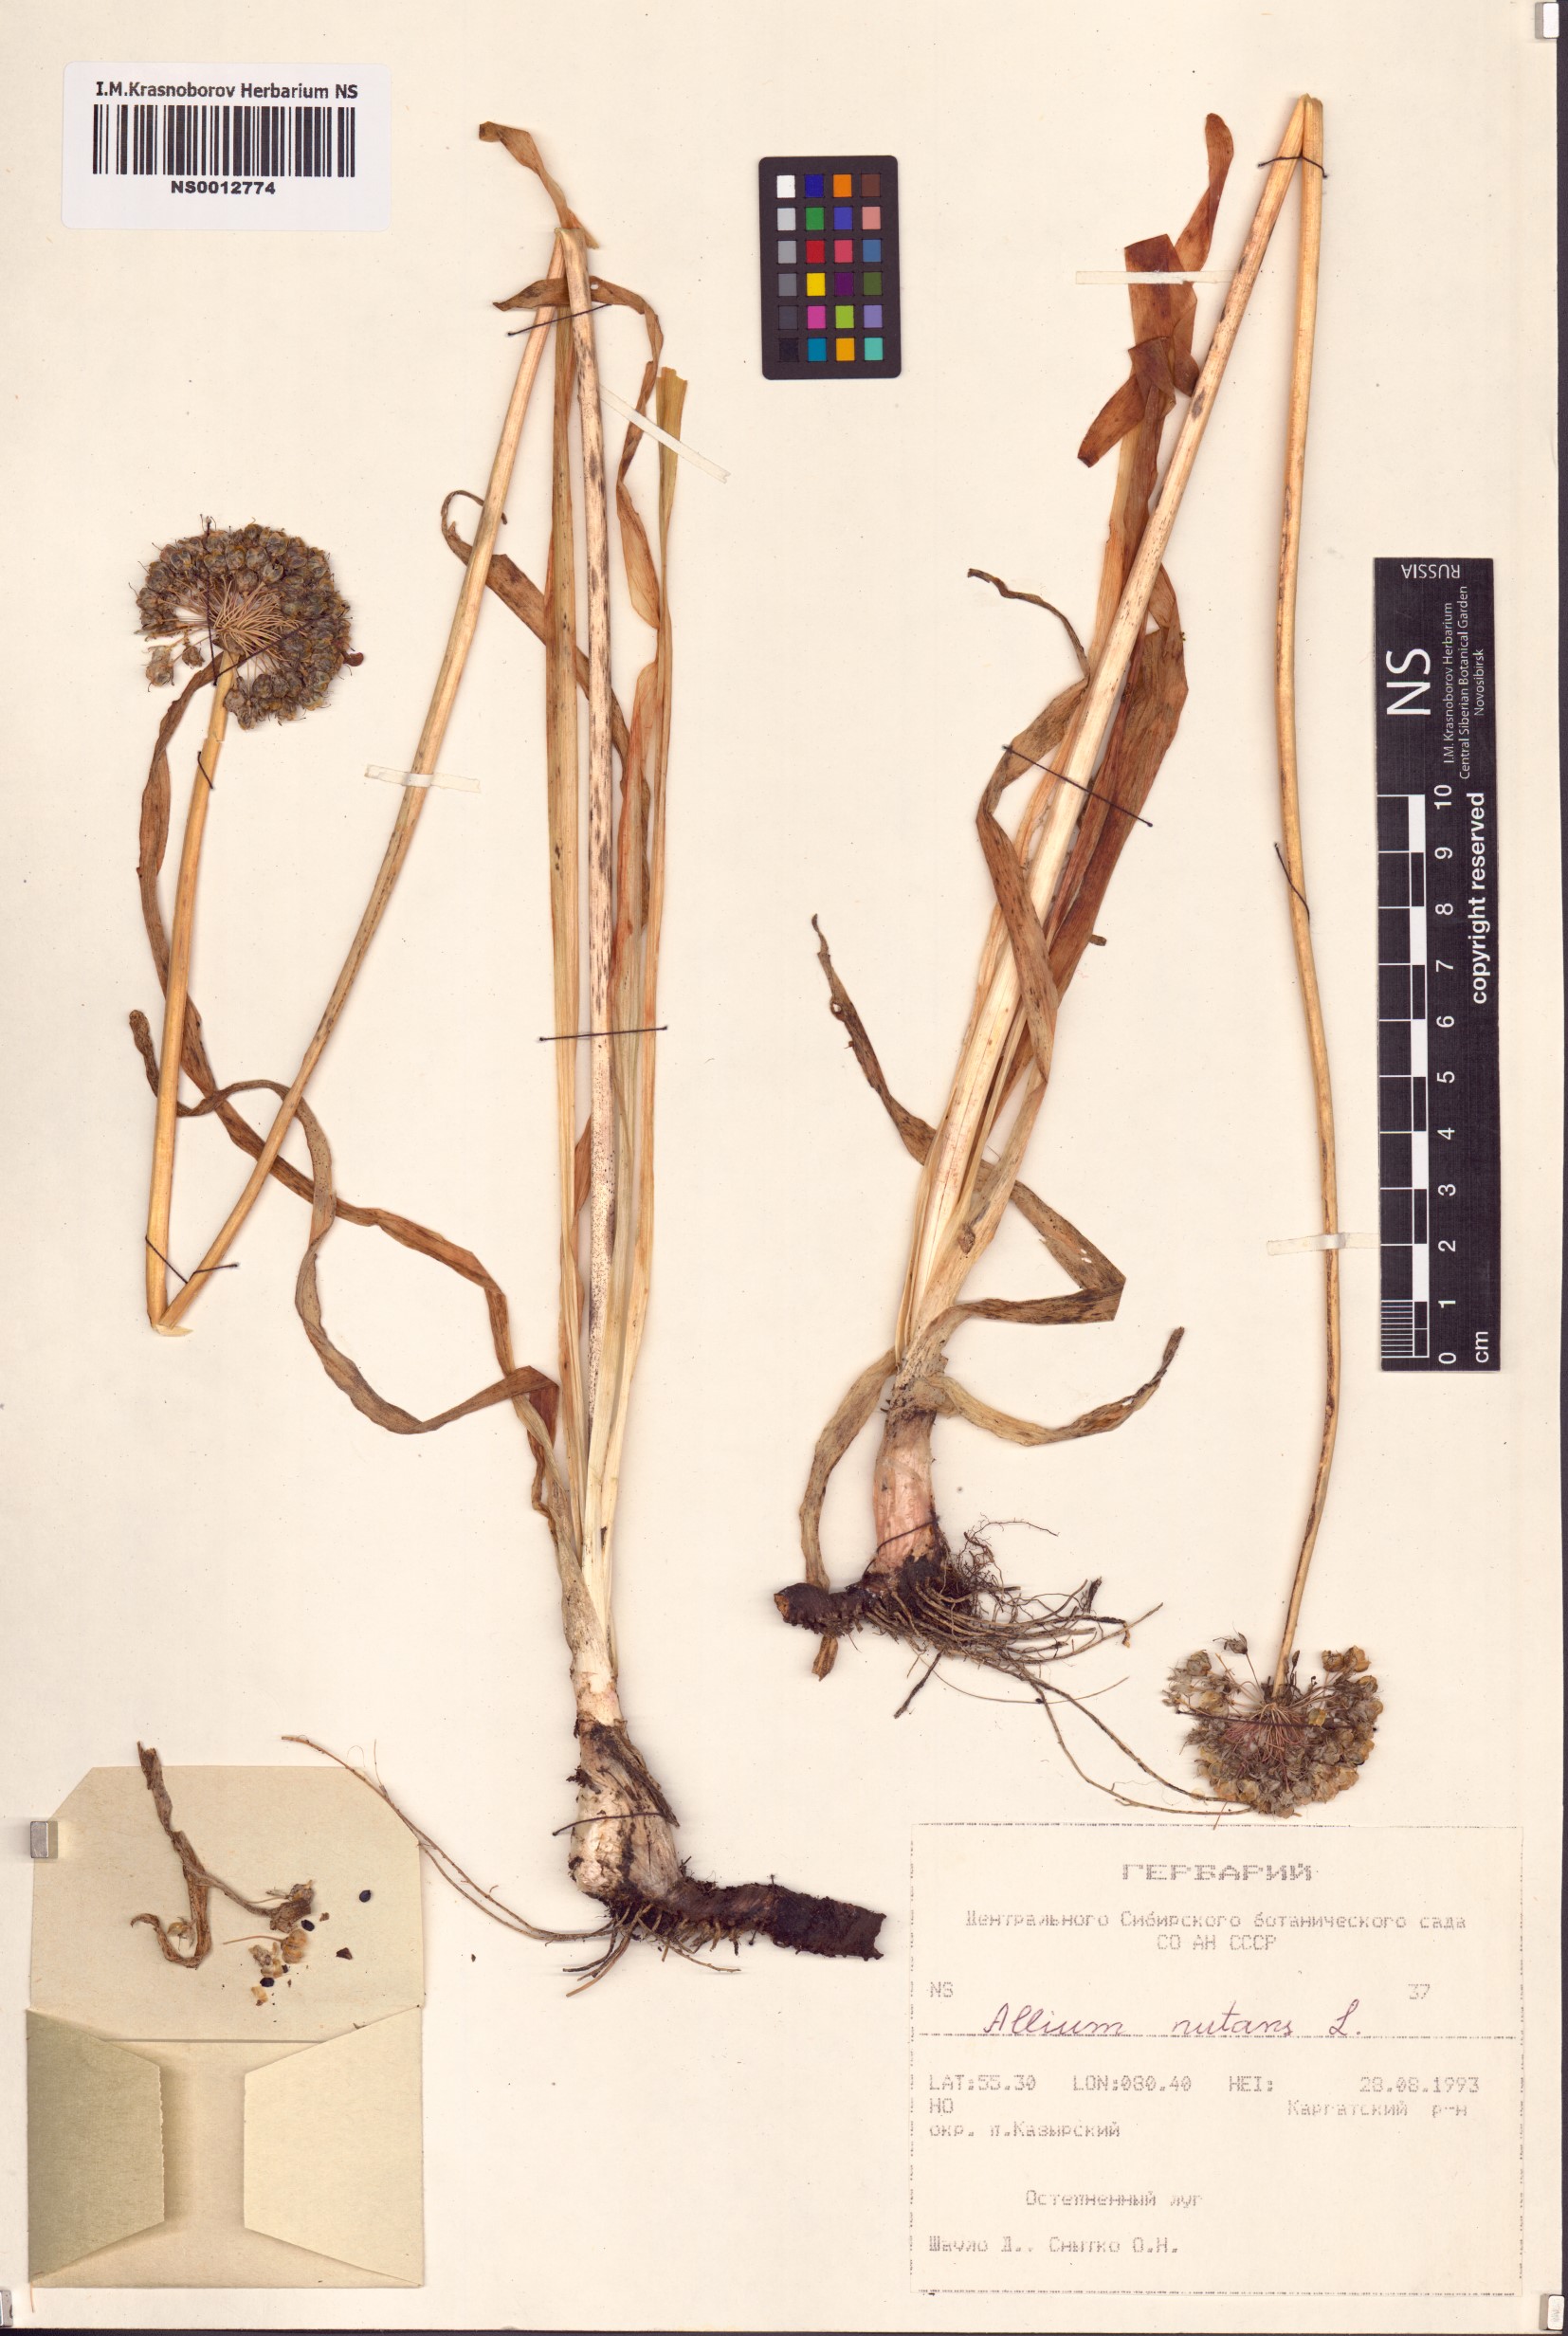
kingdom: Plantae
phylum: Tracheophyta
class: Liliopsida
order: Asparagales
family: Amaryllidaceae
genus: Allium
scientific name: Allium nutans
